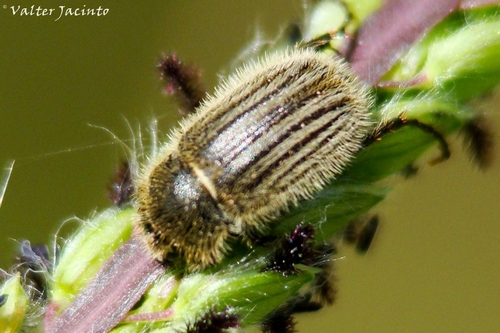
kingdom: Animalia
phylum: Arthropoda
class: Insecta
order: Coleoptera
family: Scarabaeidae
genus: Hymenoplia
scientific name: Hymenoplia
